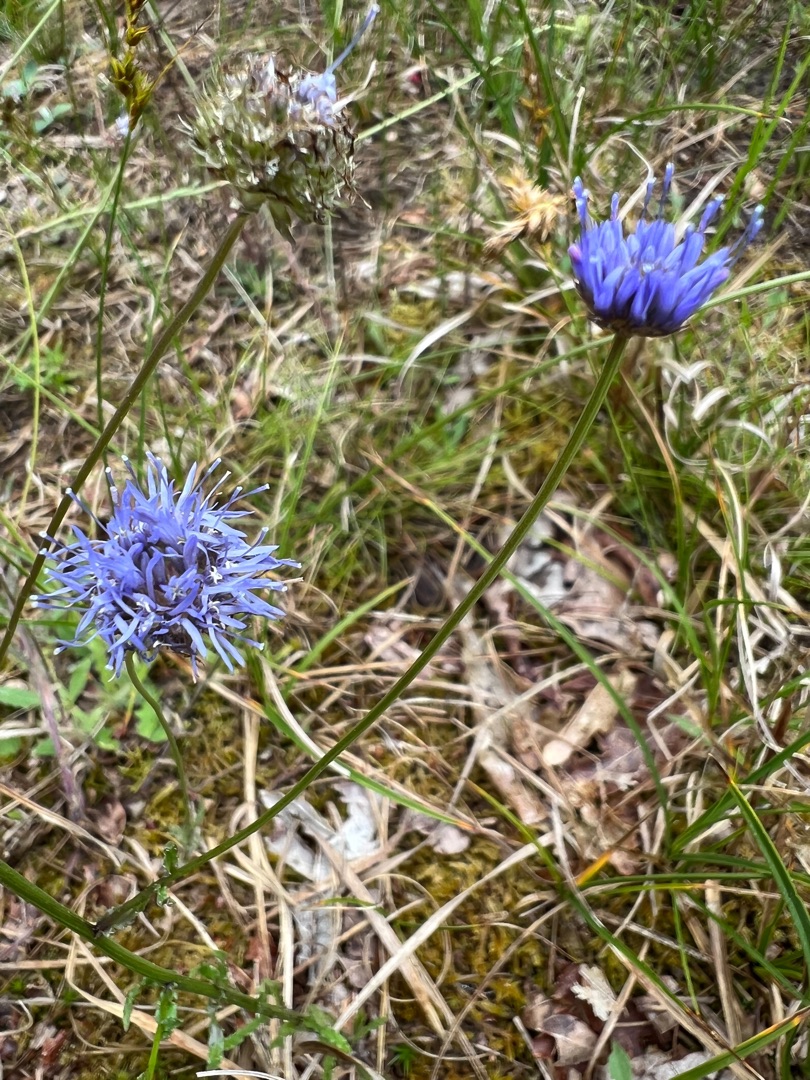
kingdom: Plantae
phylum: Tracheophyta
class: Magnoliopsida
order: Asterales
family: Campanulaceae
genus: Jasione
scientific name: Jasione montana
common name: Blåmunke
